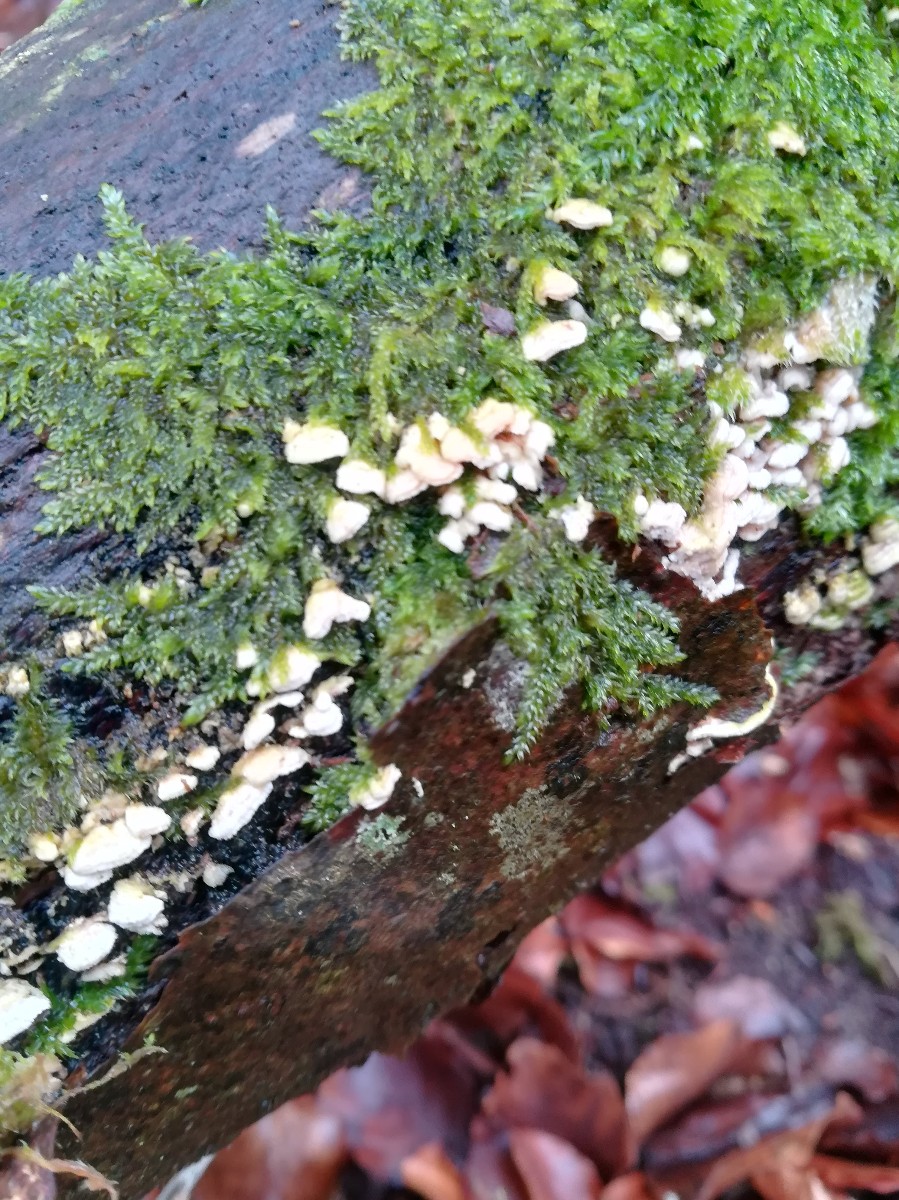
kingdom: Fungi
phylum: Basidiomycota
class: Agaricomycetes
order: Polyporales
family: Steccherinaceae
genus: Steccherinum
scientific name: Steccherinum ochraceum
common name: almindelig skønpig
